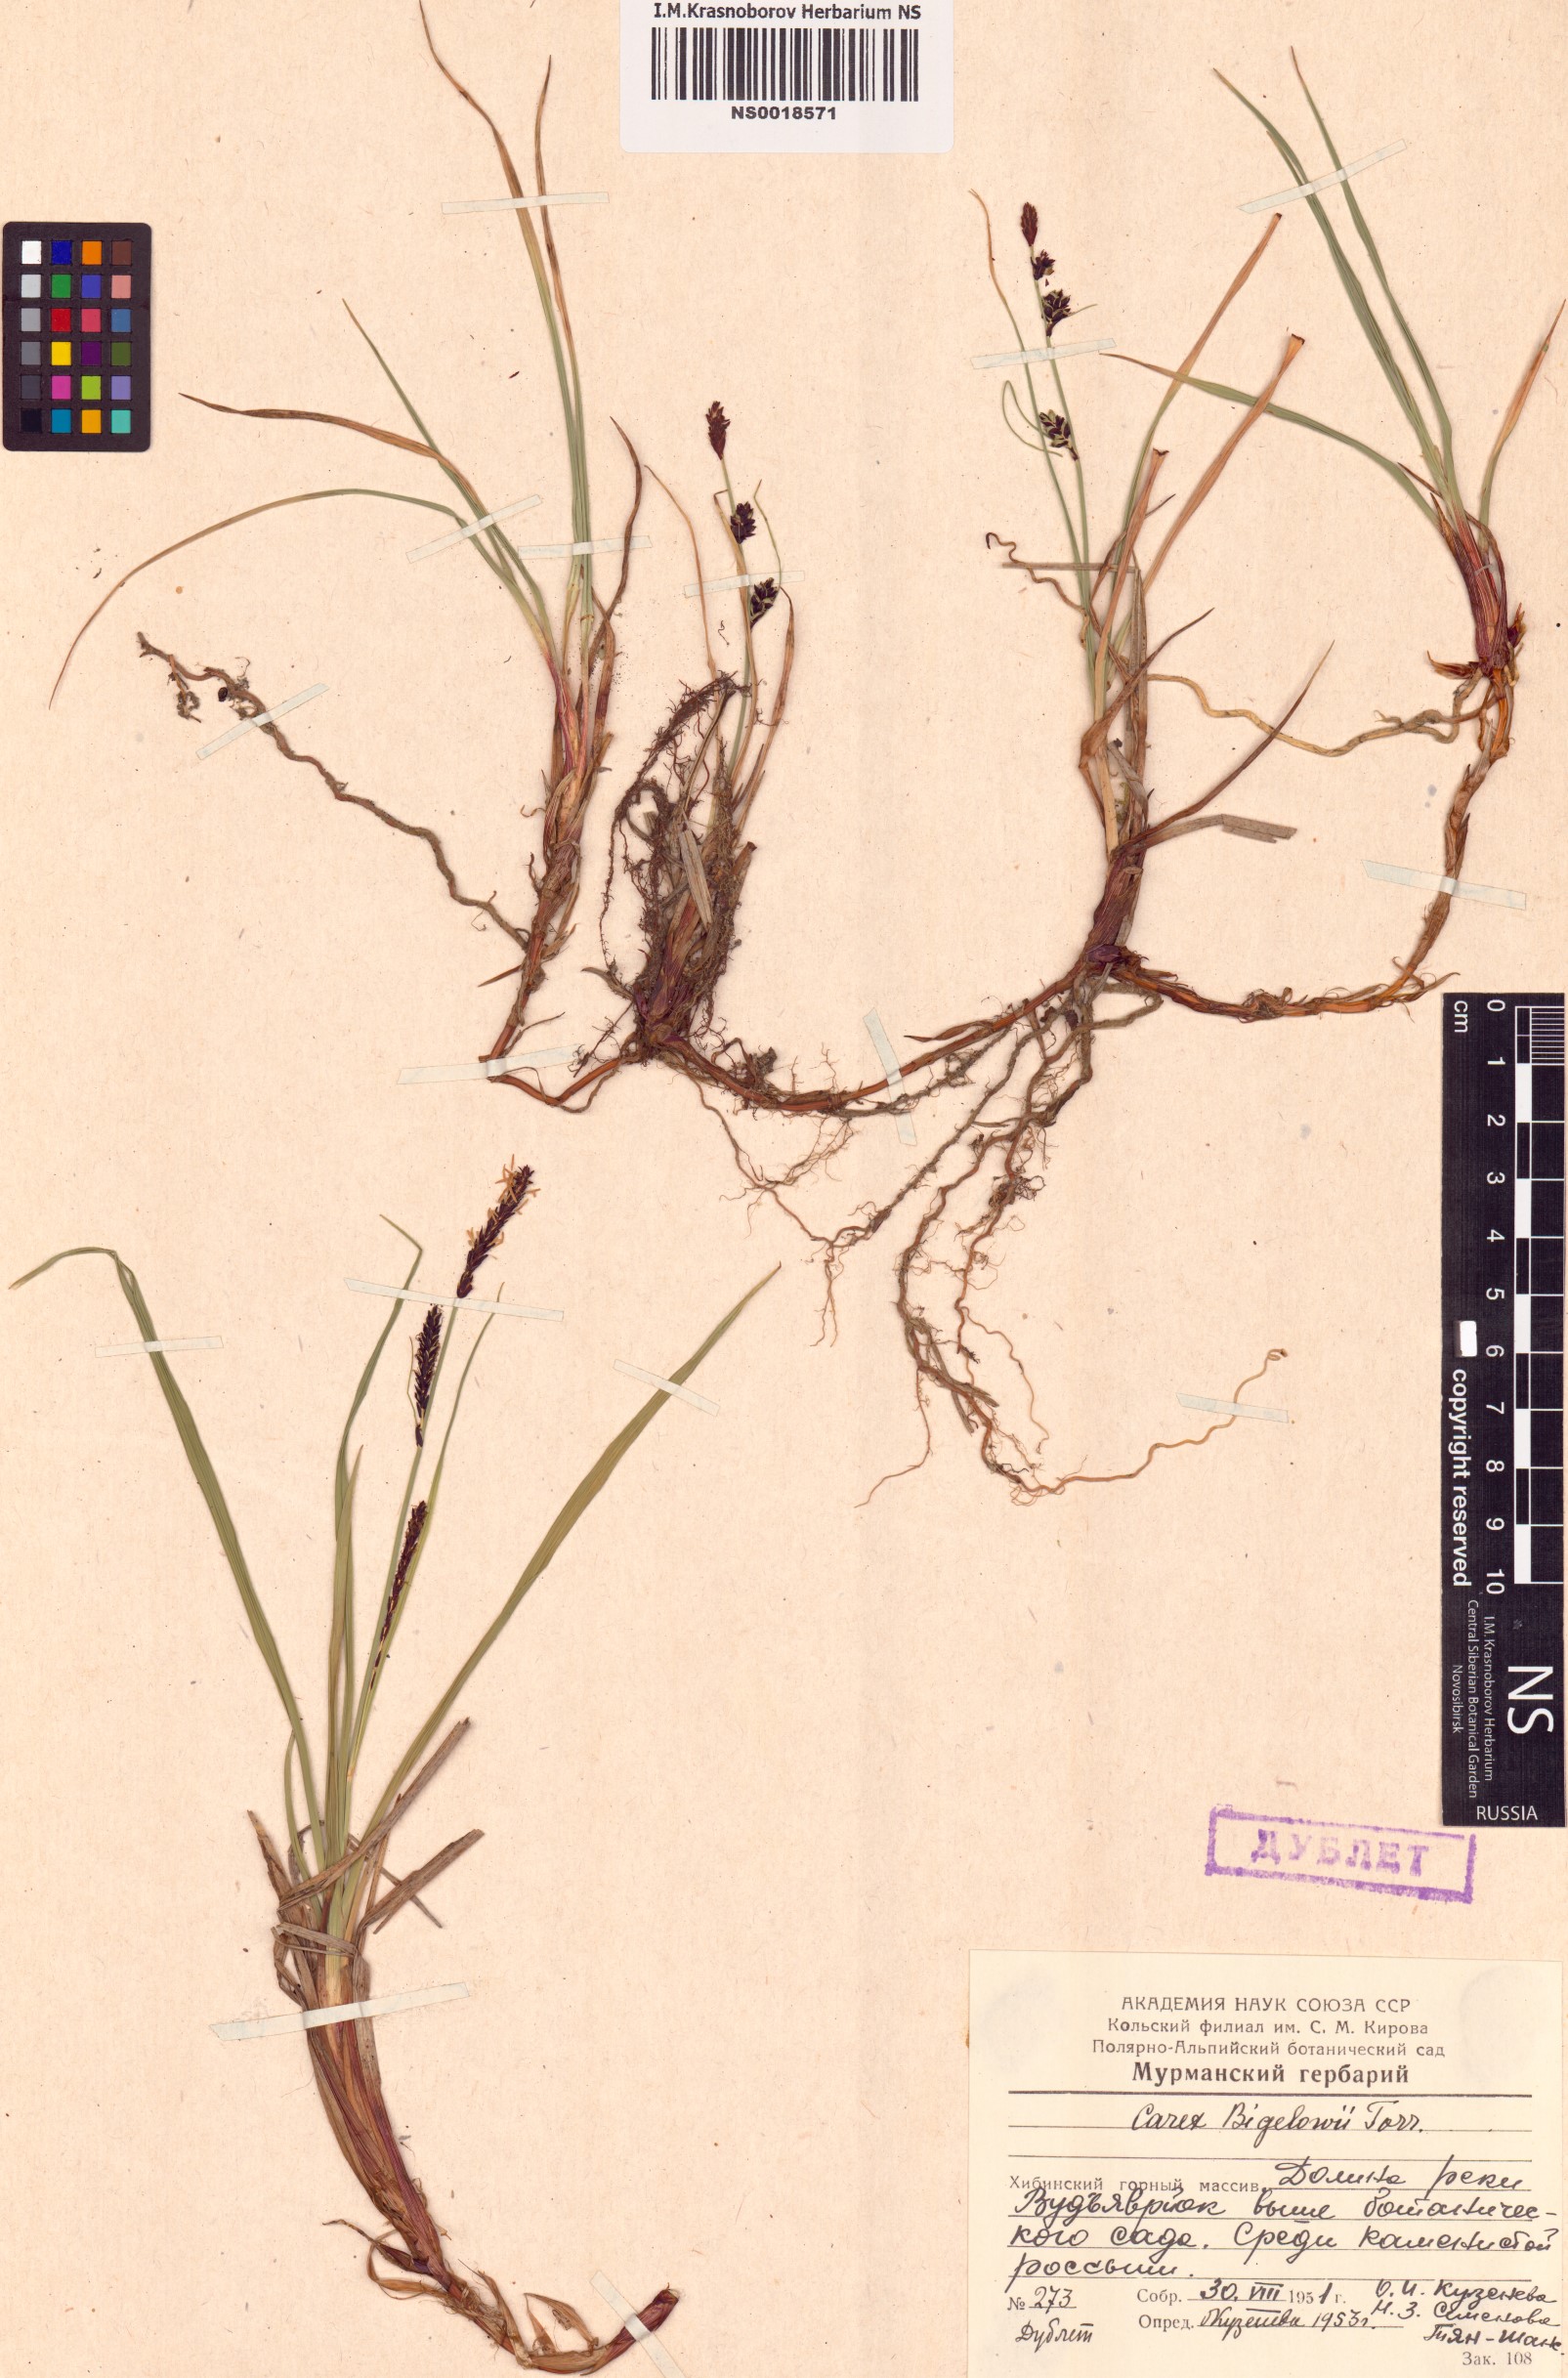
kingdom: Plantae
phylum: Tracheophyta
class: Liliopsida
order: Poales
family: Cyperaceae
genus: Carex
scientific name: Carex bigelowii
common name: Stiff sedge
